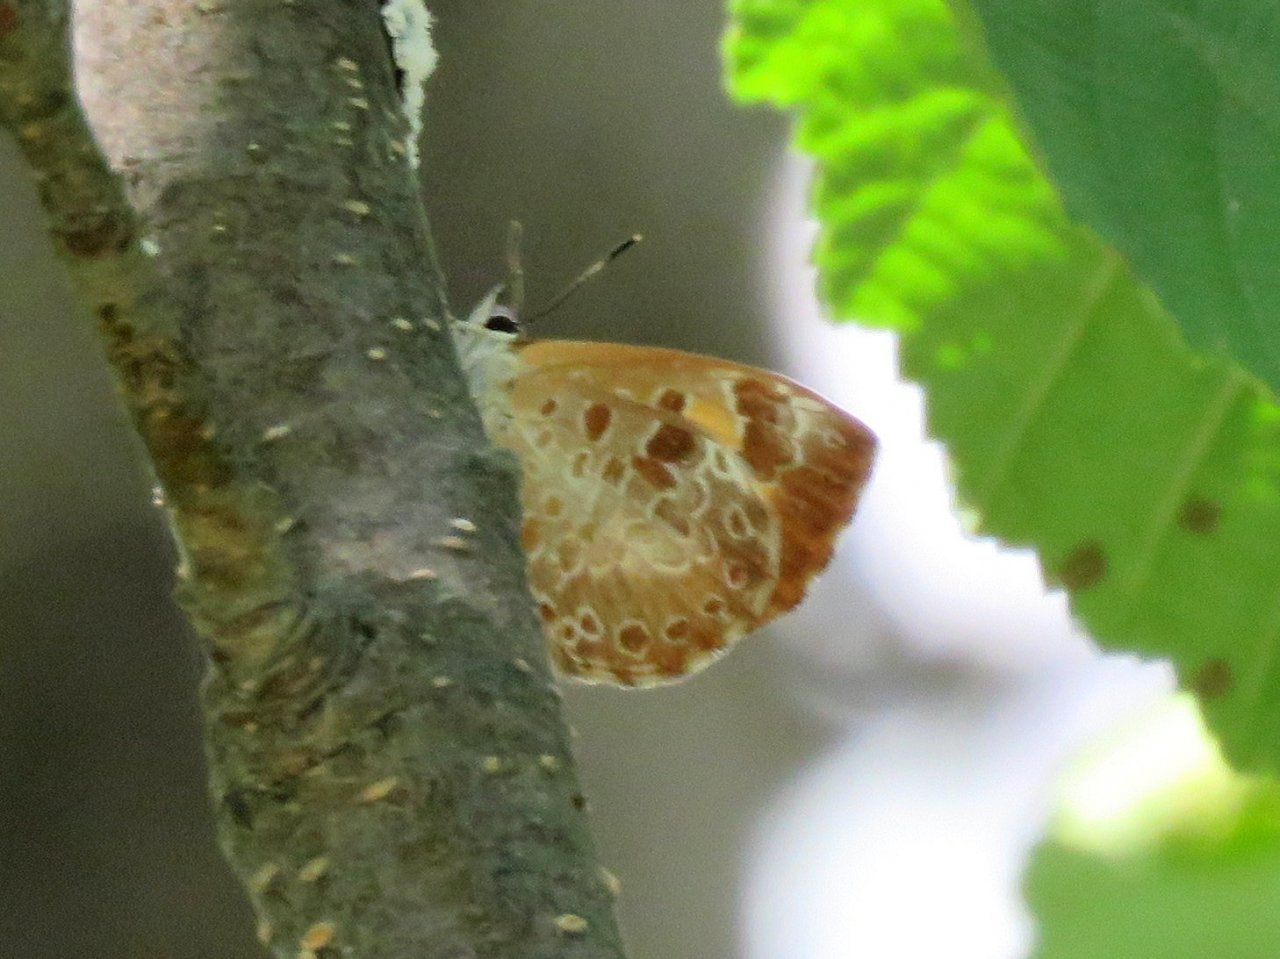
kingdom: Animalia
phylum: Arthropoda
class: Insecta
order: Lepidoptera
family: Lycaenidae
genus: Feniseca
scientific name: Feniseca tarquinius
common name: Harvester
